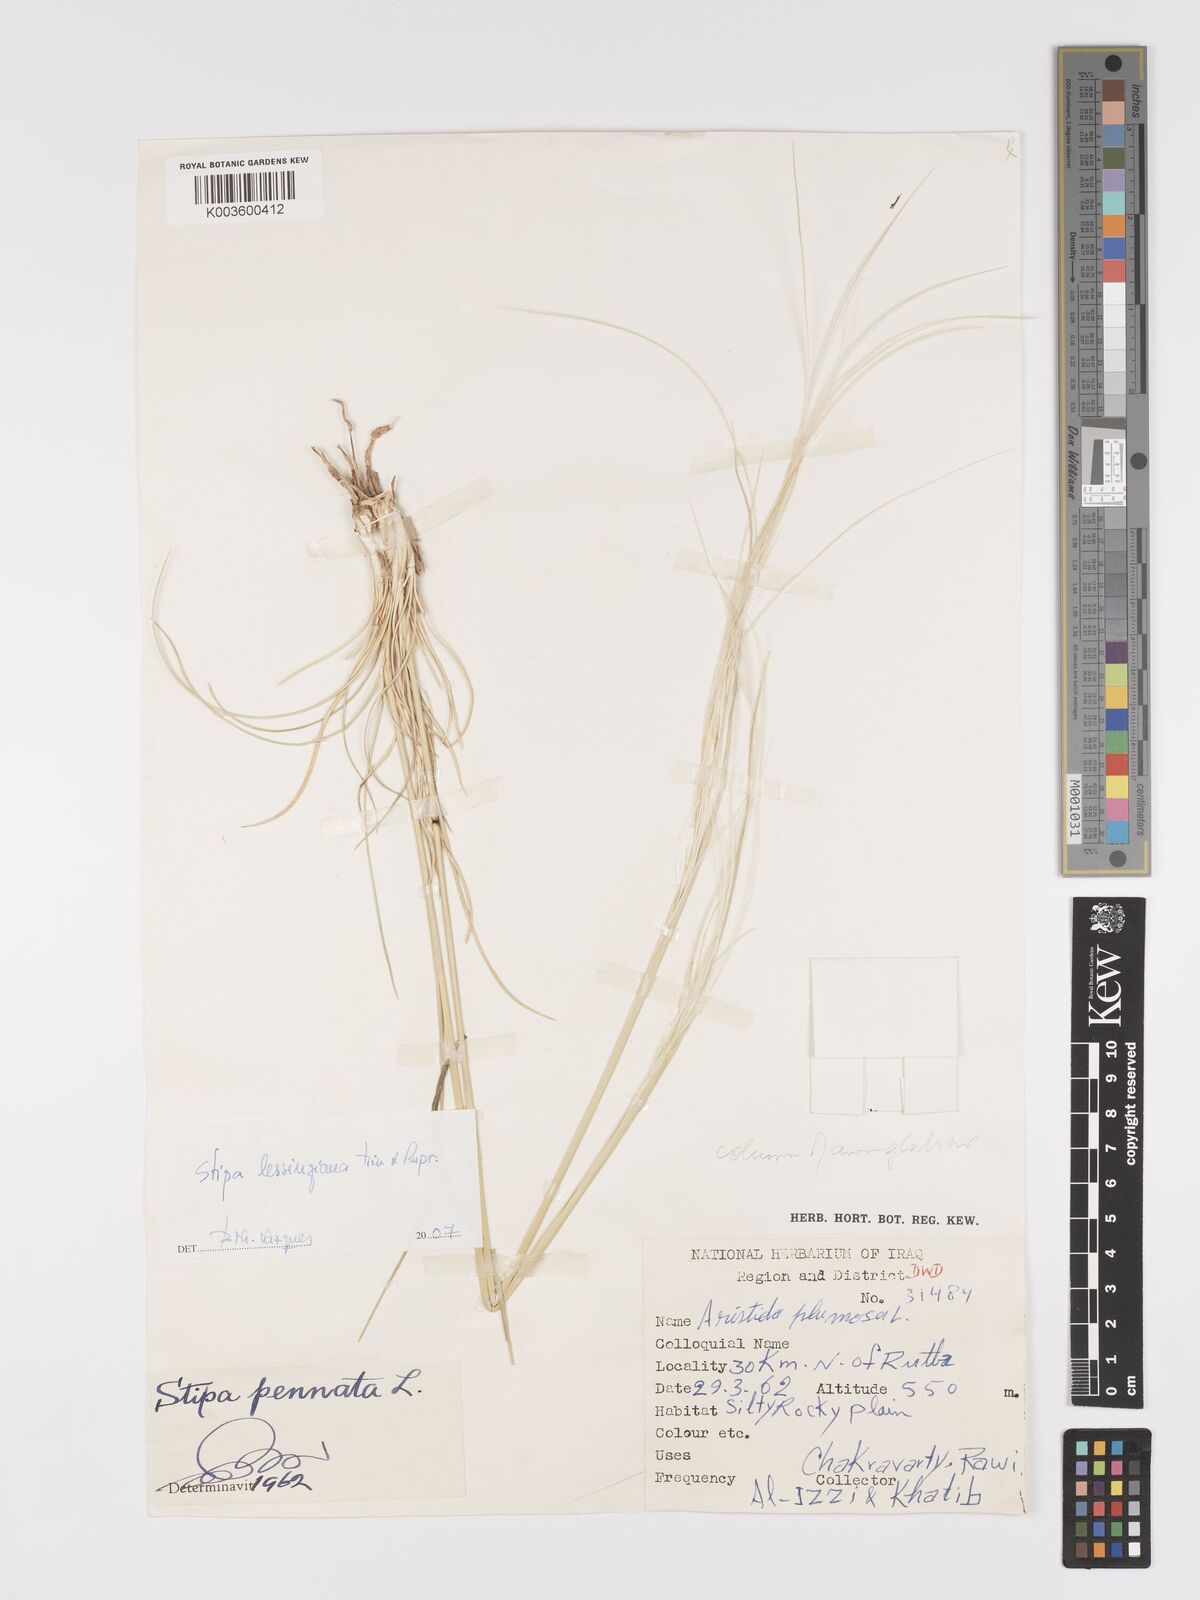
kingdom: Plantae
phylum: Tracheophyta
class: Liliopsida
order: Poales
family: Poaceae
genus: Stipa
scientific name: Stipa lessingiana
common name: Needle grass
